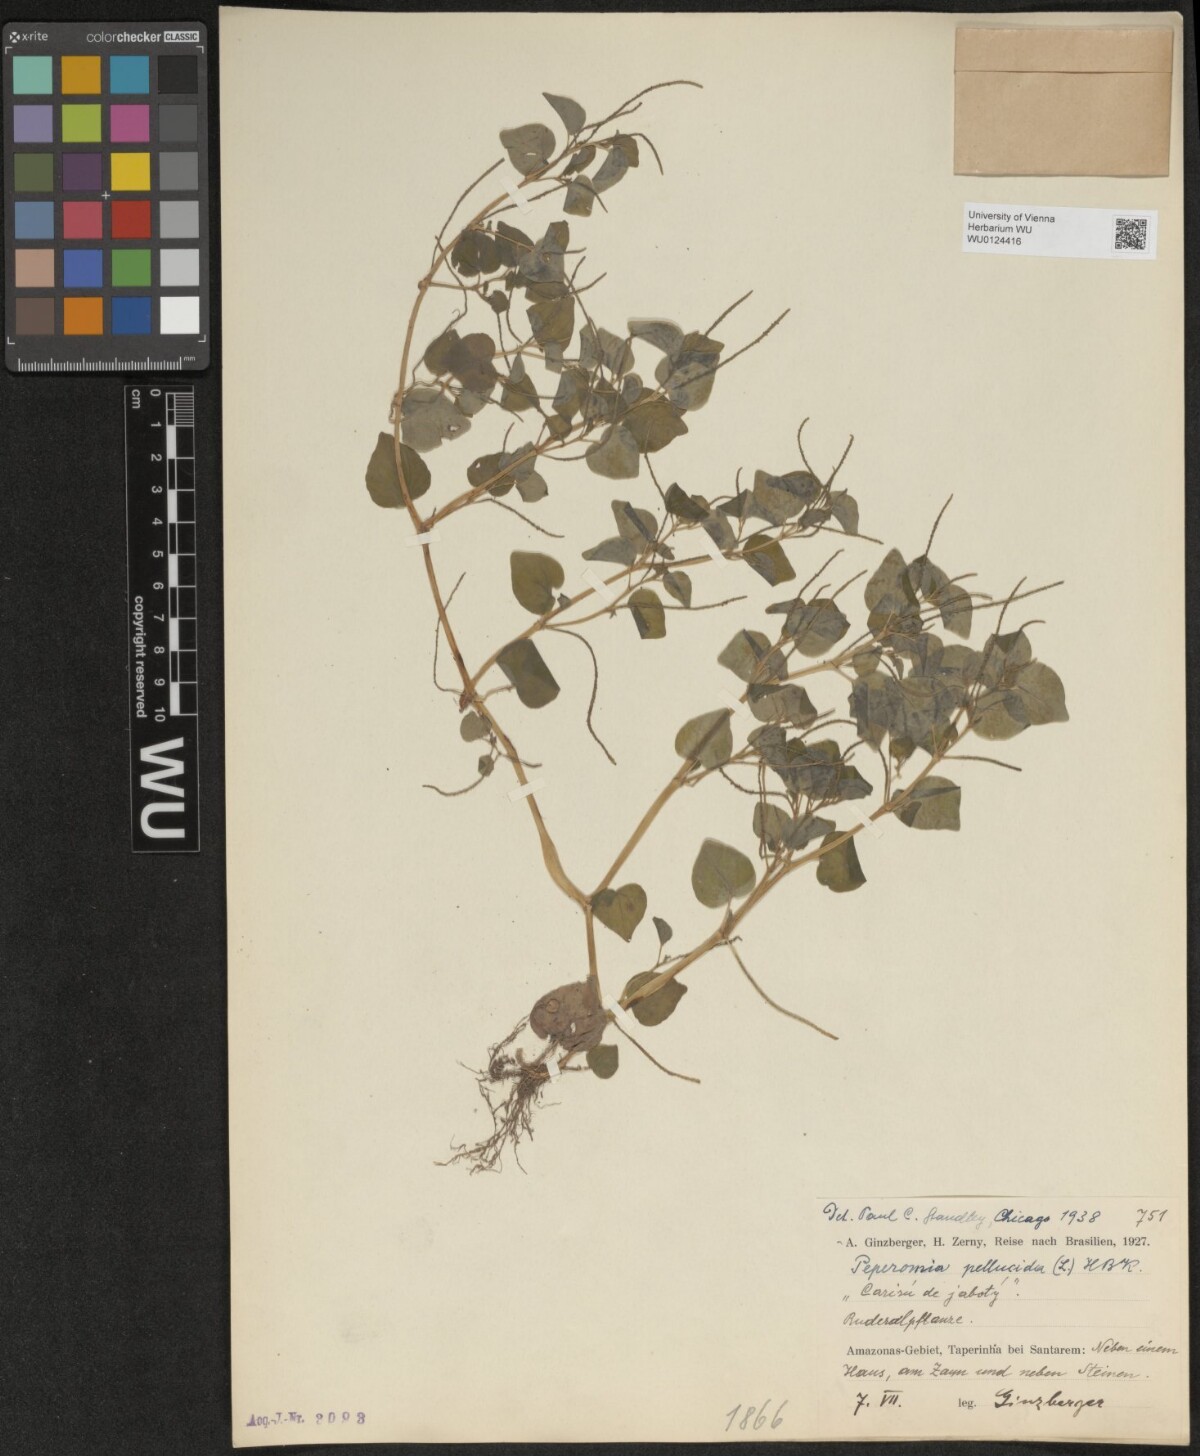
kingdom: Plantae
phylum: Tracheophyta
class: Magnoliopsida
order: Piperales
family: Piperaceae
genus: Peperomia
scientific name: Peperomia pellucida
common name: Man to man
